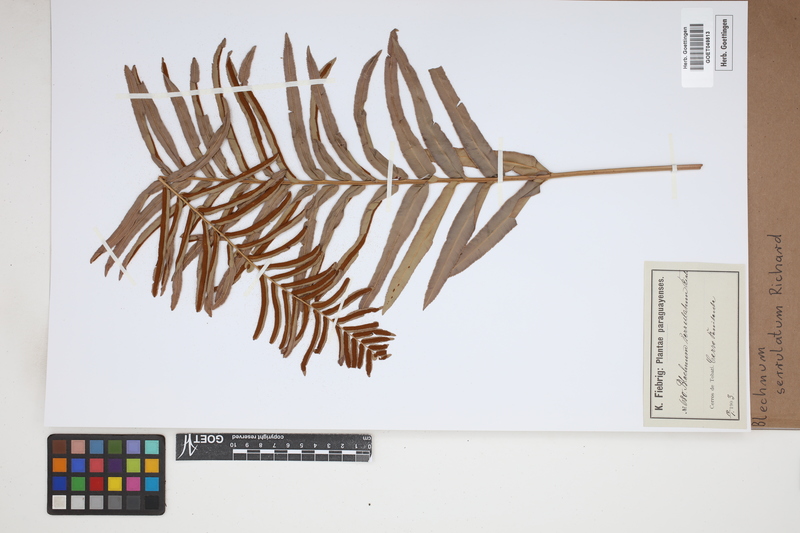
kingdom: Plantae
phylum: Tracheophyta
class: Polypodiopsida
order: Polypodiales
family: Blechnaceae
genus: Telmatoblechnum
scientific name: Telmatoblechnum serrulatum
